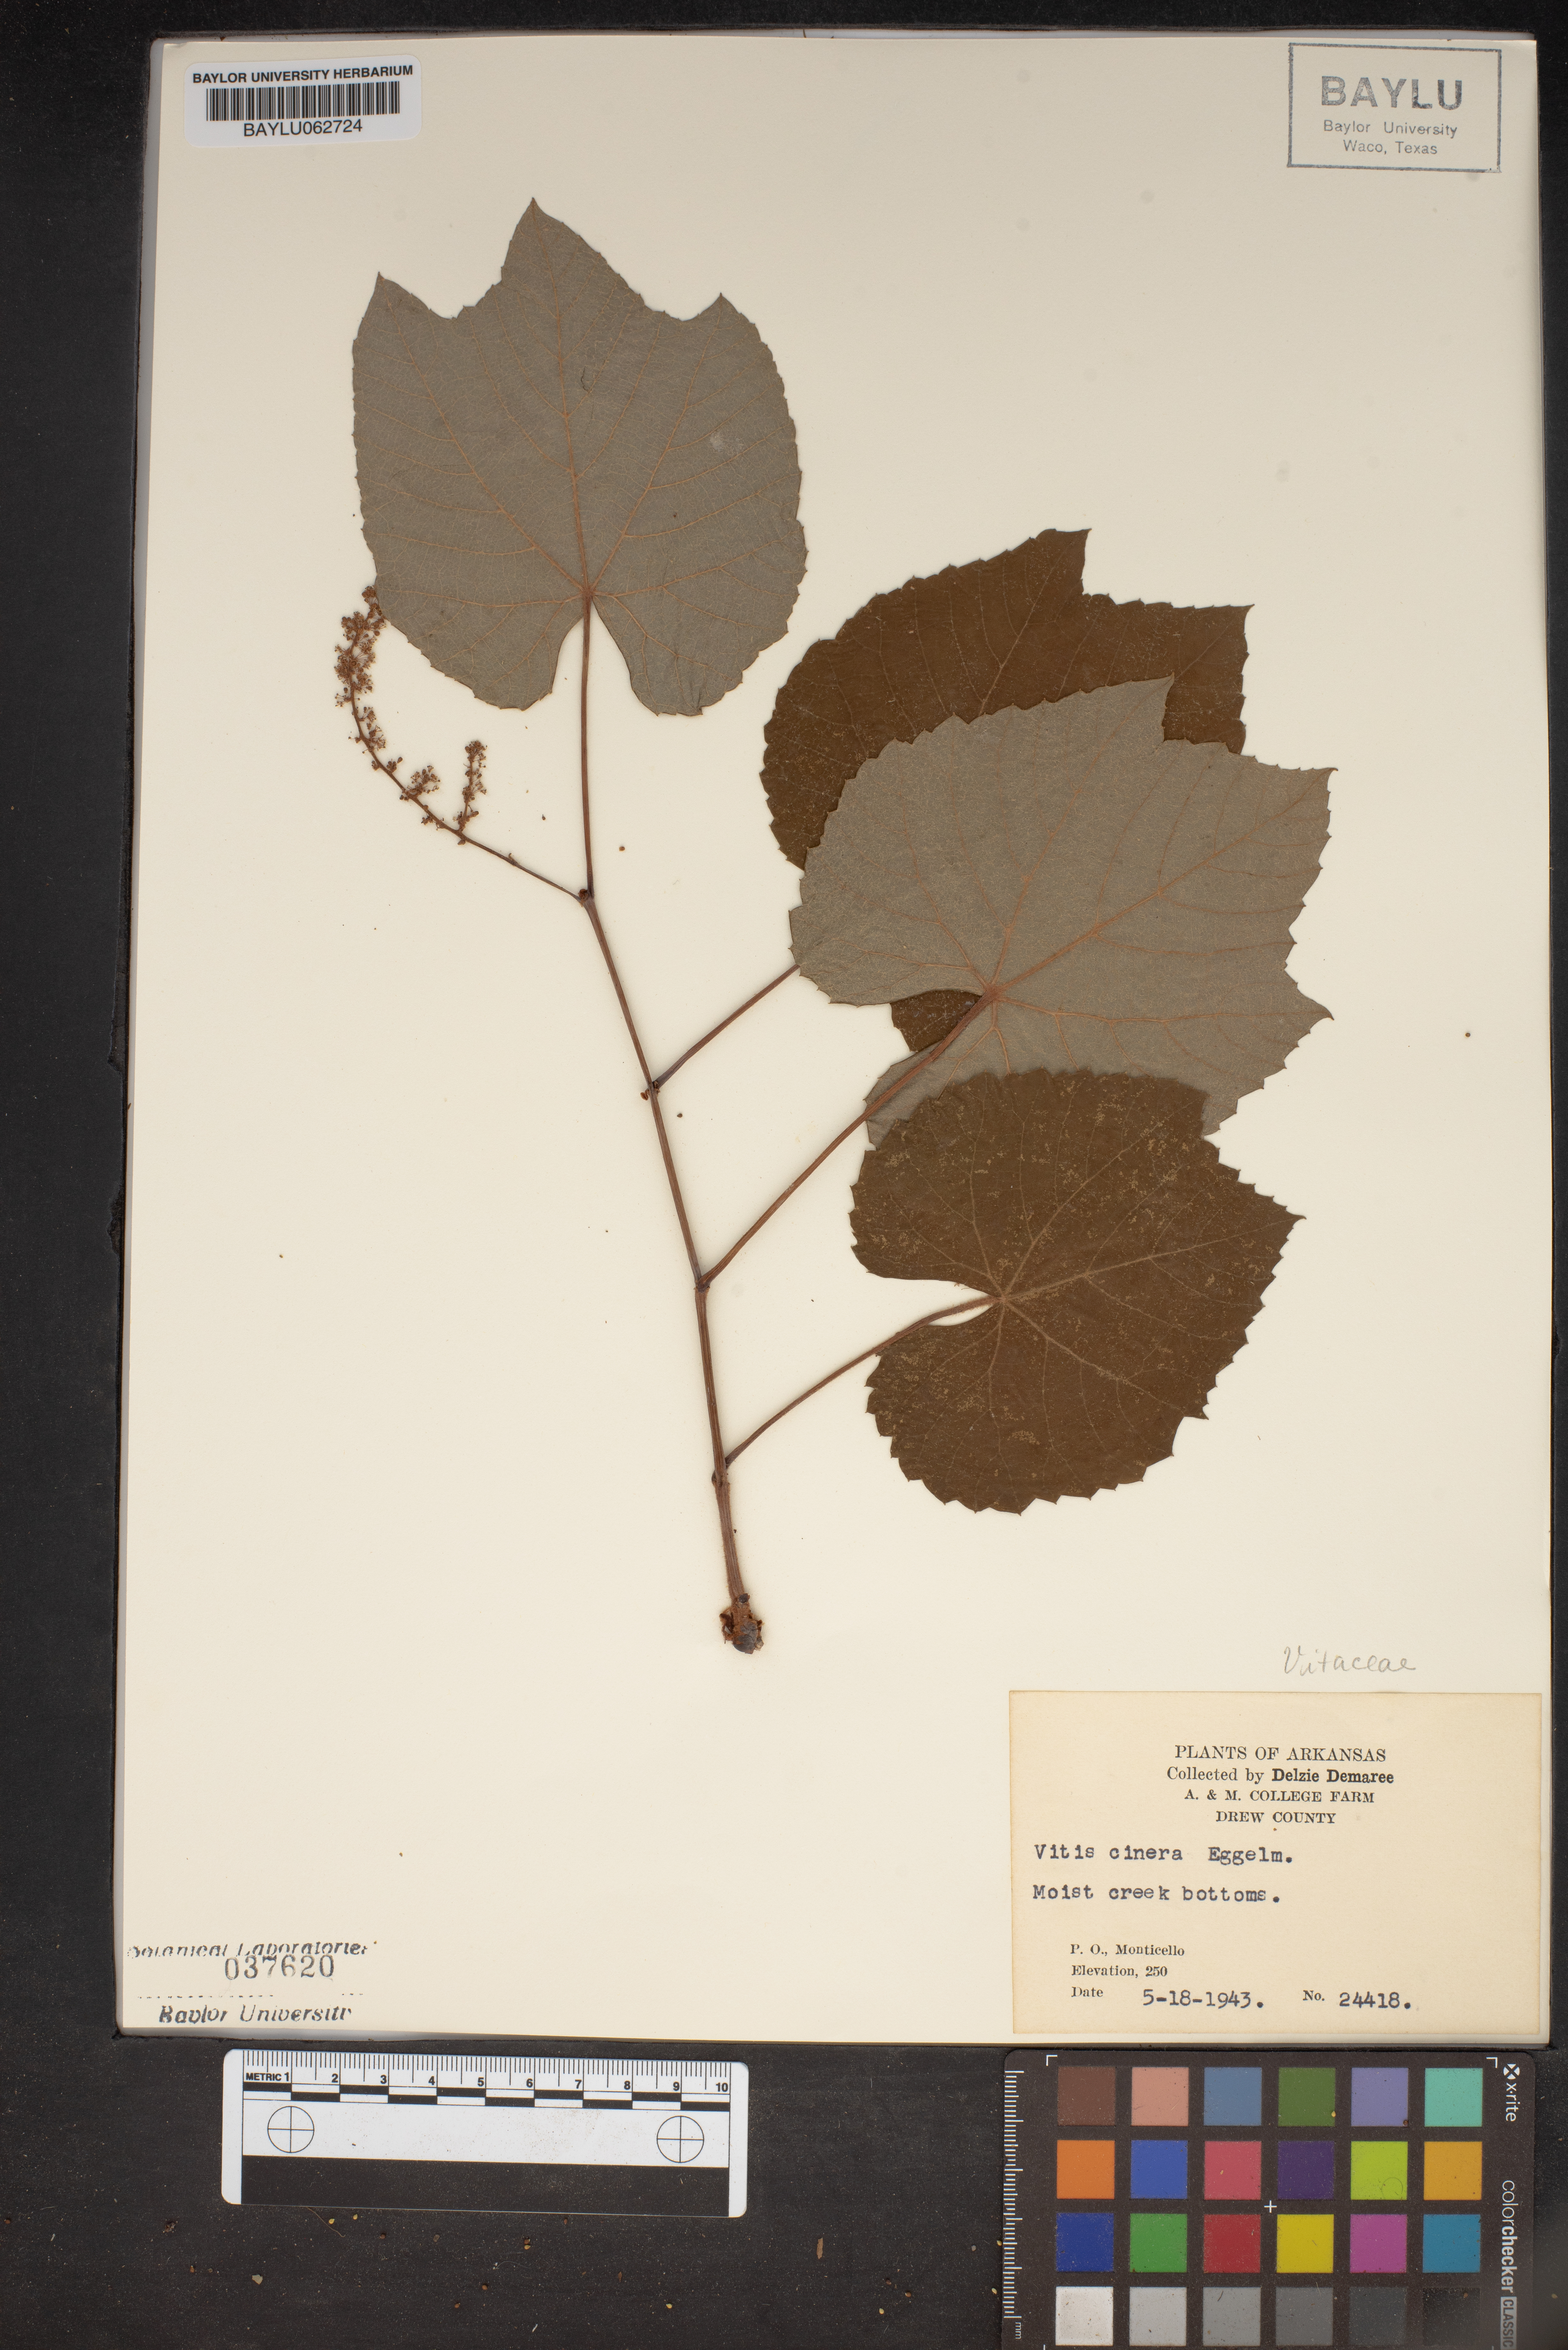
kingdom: Plantae
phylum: Tracheophyta
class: Magnoliopsida
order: Vitales
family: Vitaceae
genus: Vitis
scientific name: Vitis cinerea
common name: Ashy grape
